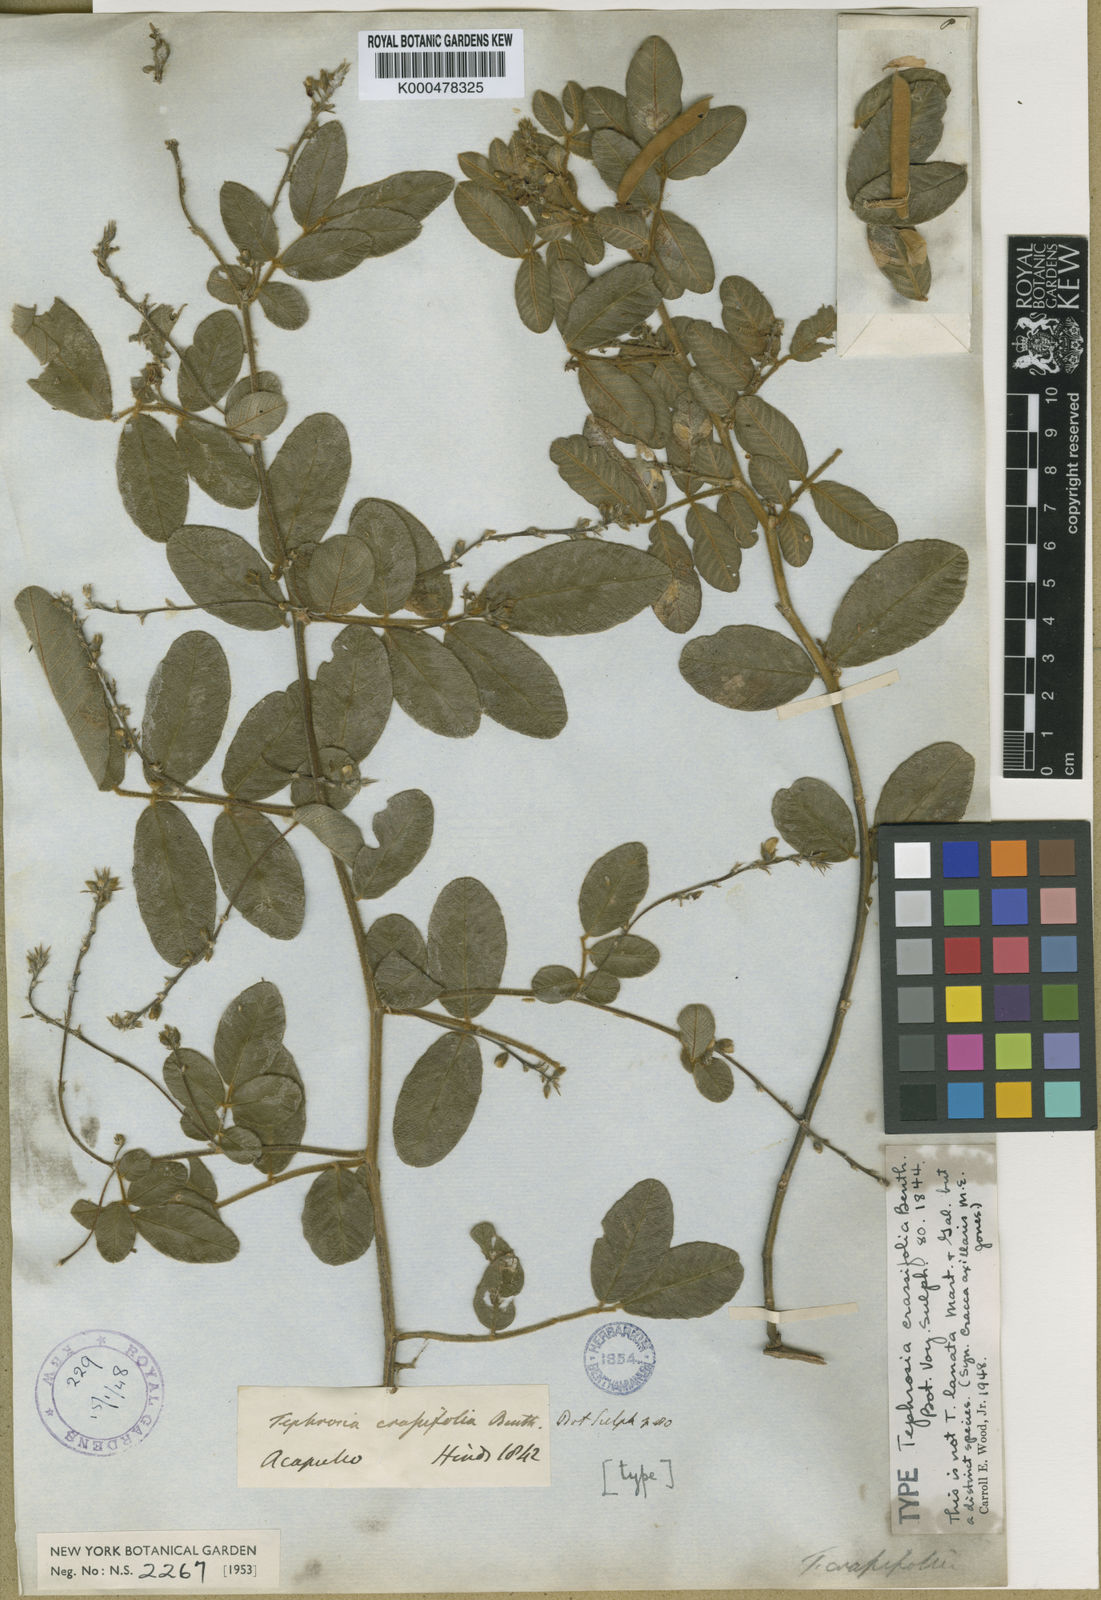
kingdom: Plantae
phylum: Tracheophyta
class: Magnoliopsida
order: Fabales
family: Fabaceae
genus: Tephrosia
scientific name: Tephrosia crassifolia
